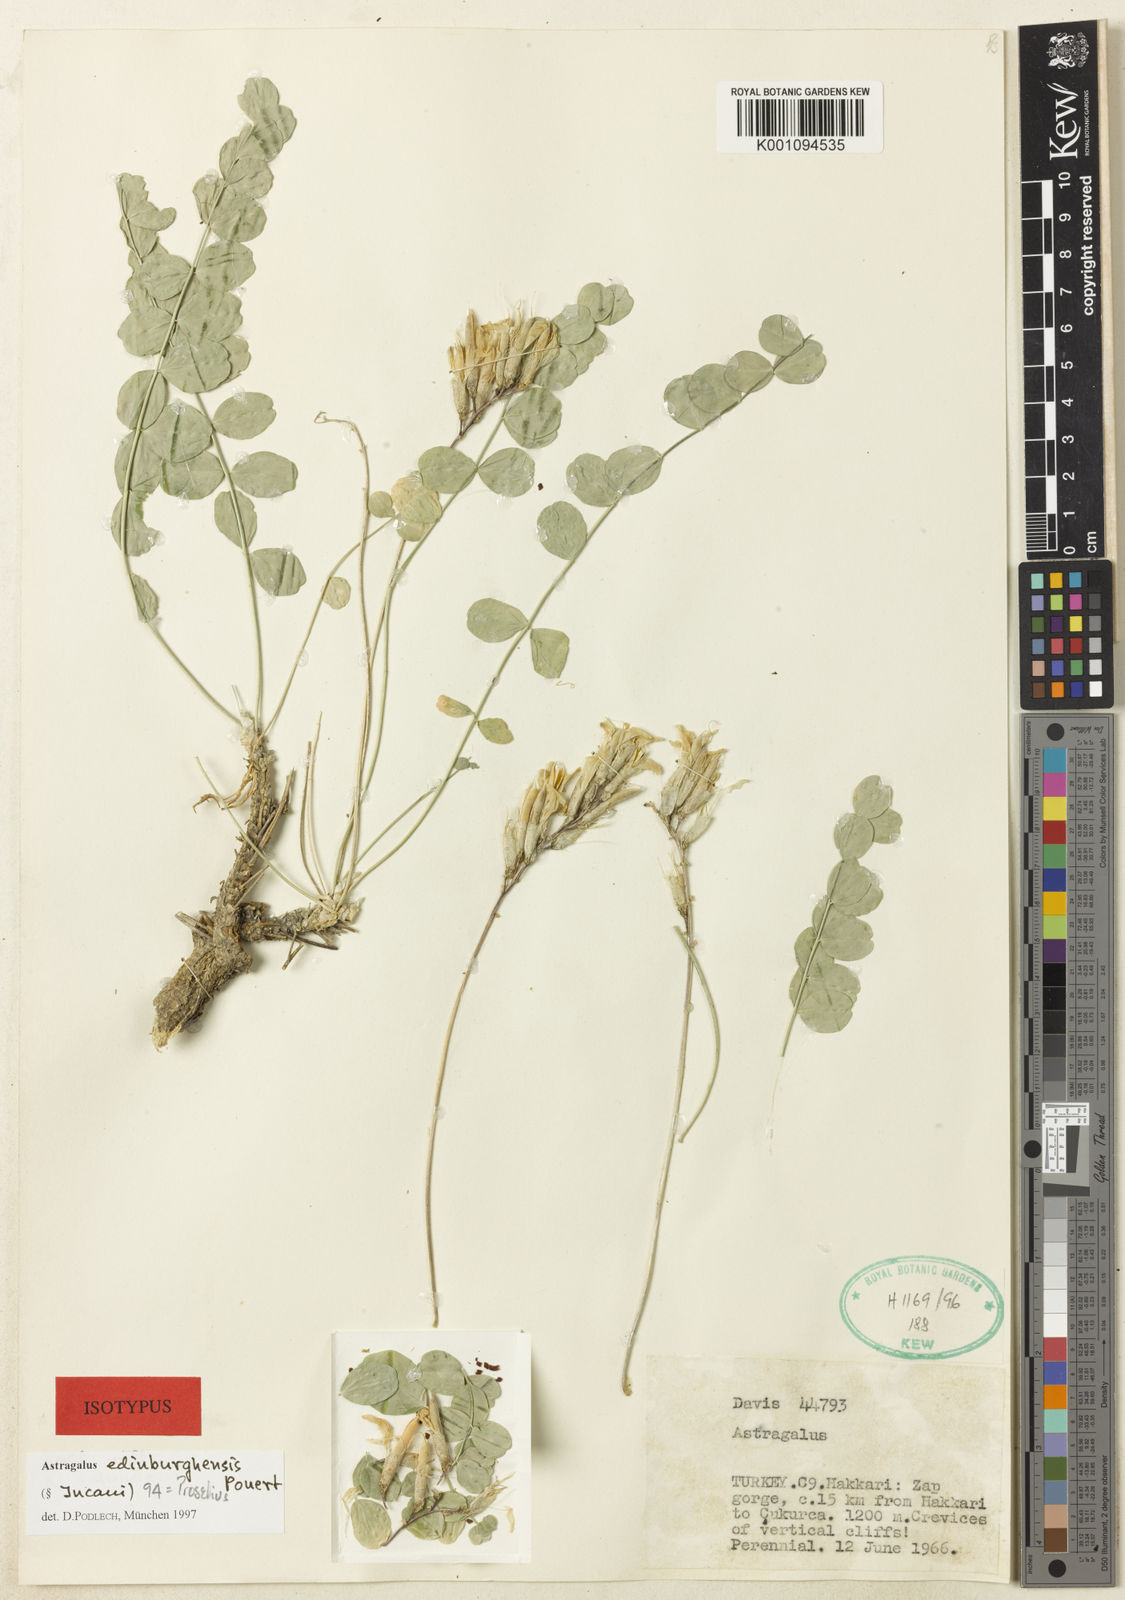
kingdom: Plantae
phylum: Tracheophyta
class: Magnoliopsida
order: Fabales
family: Fabaceae
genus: Astragalus
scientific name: Astragalus
